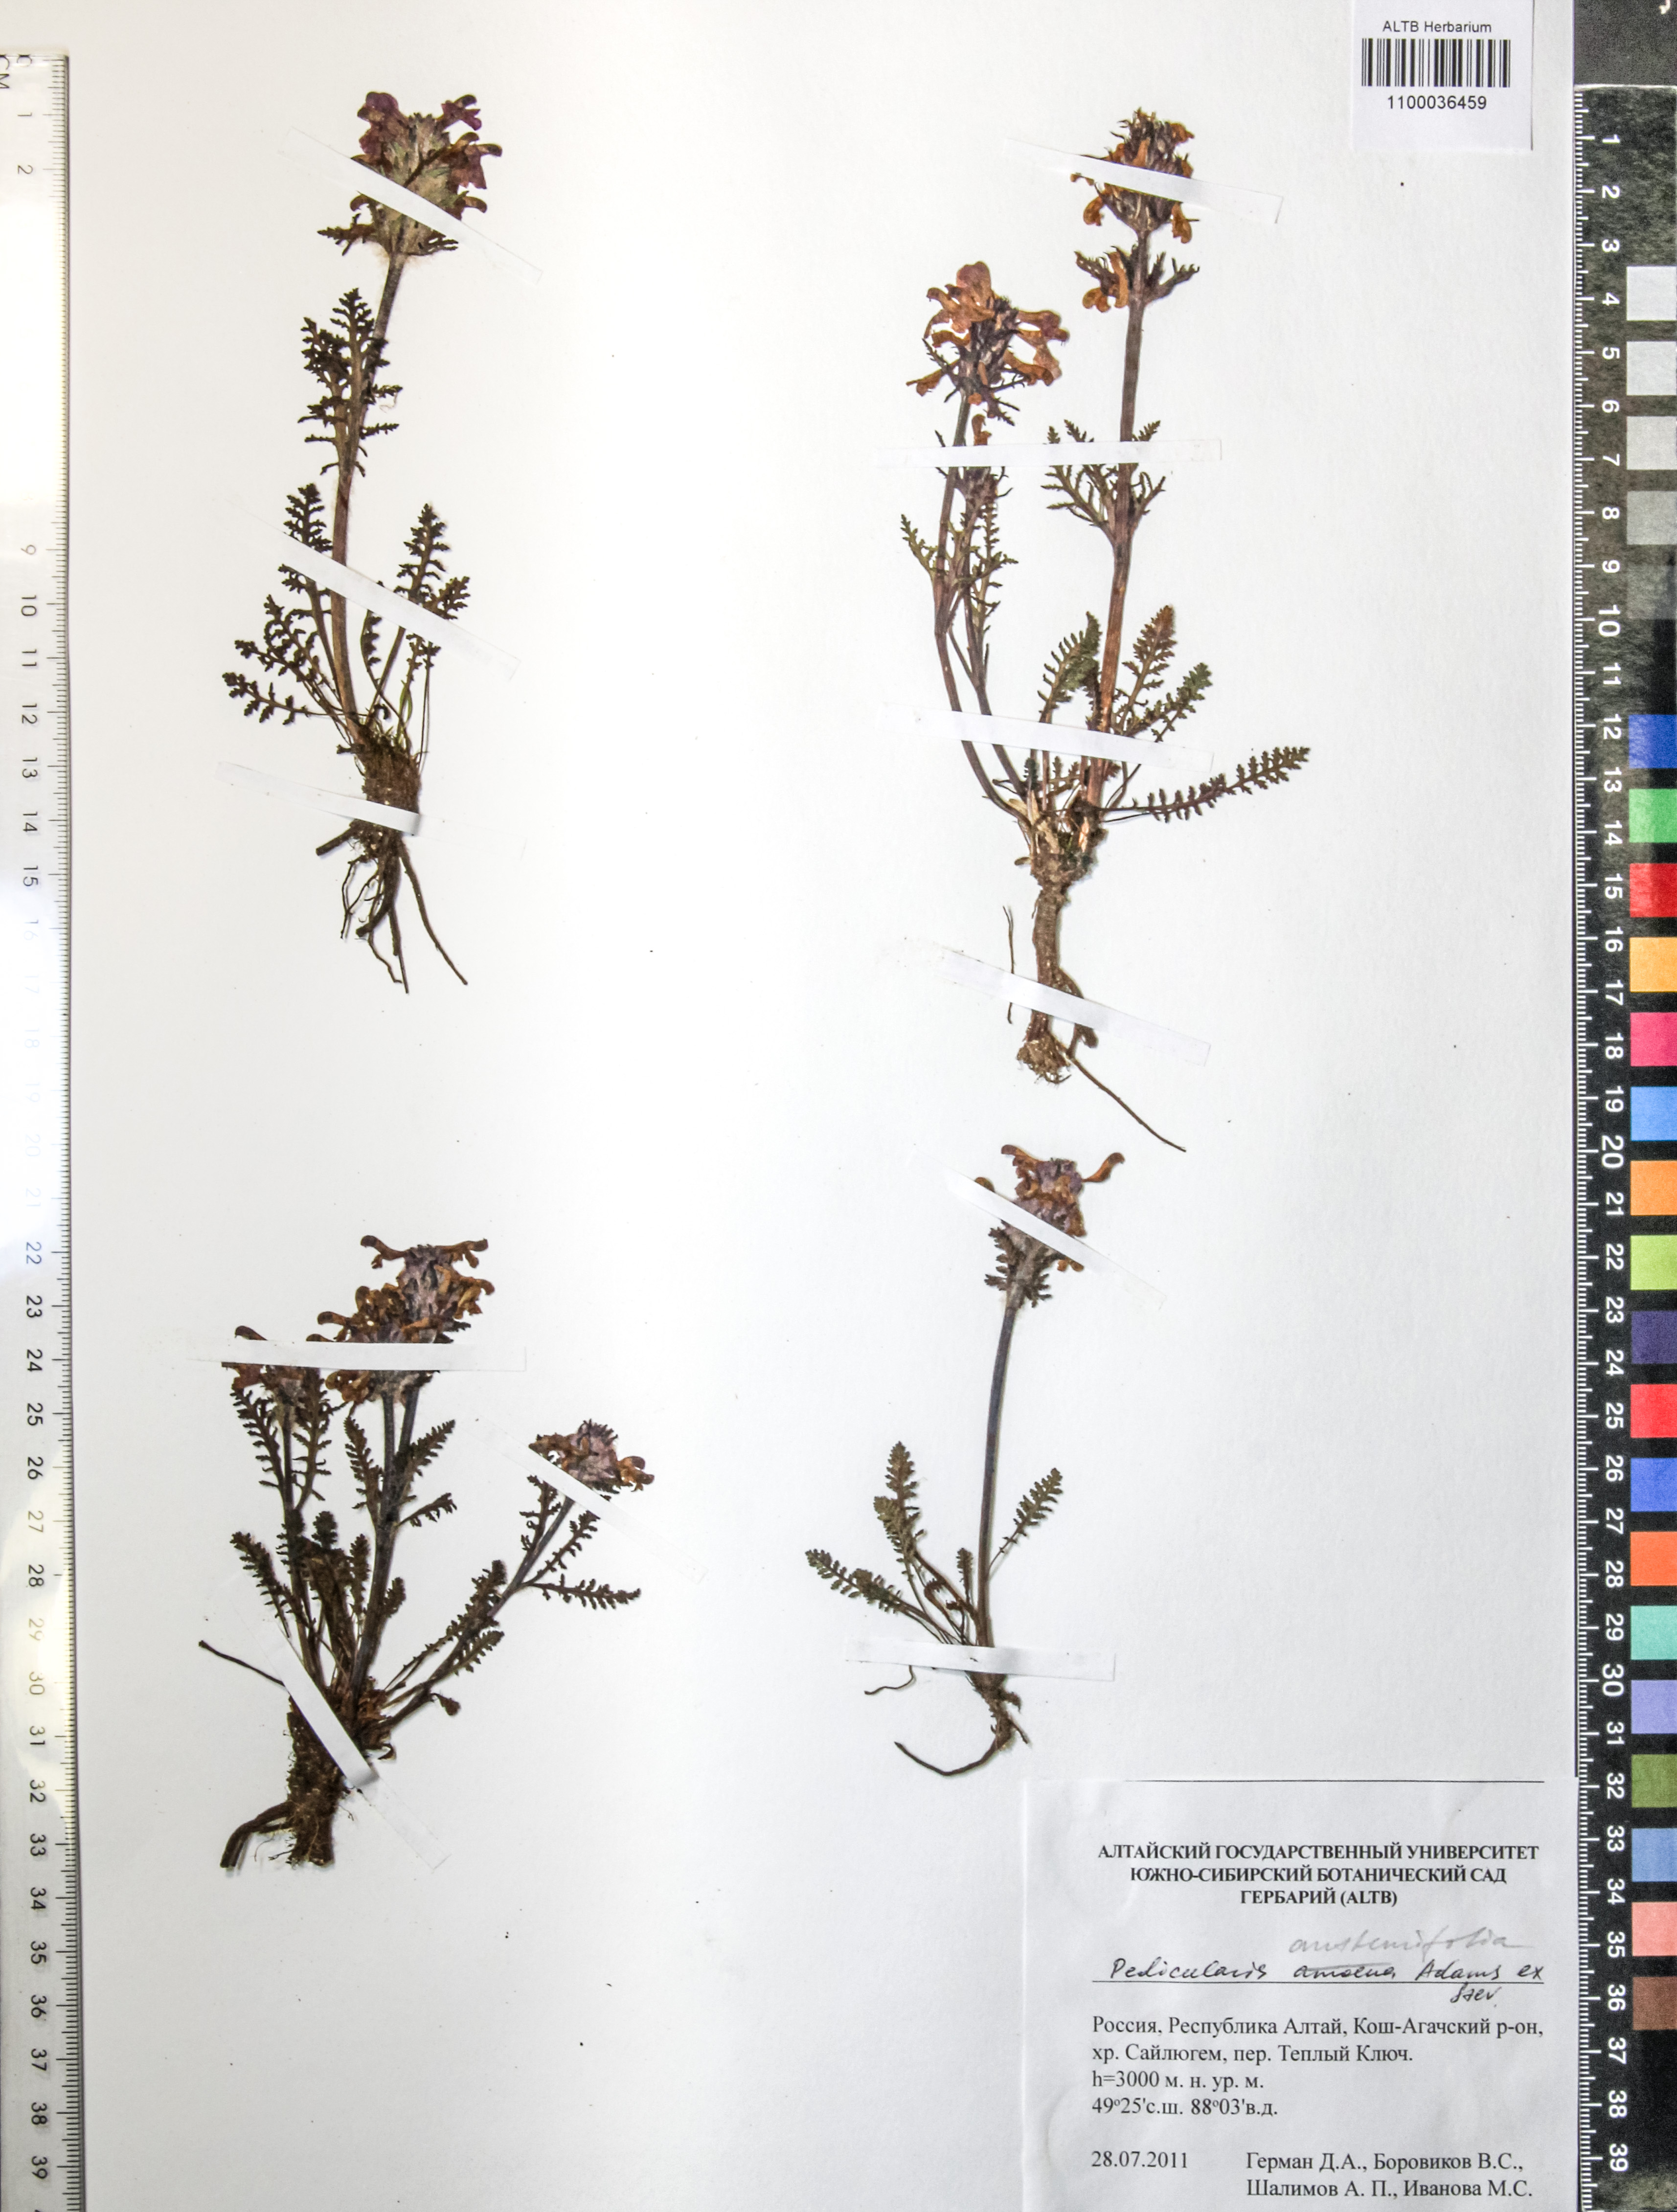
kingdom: Plantae
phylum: Tracheophyta
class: Magnoliopsida
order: Lamiales
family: Orobanchaceae
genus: Pedicularis
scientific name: Pedicularis achilleifolia
